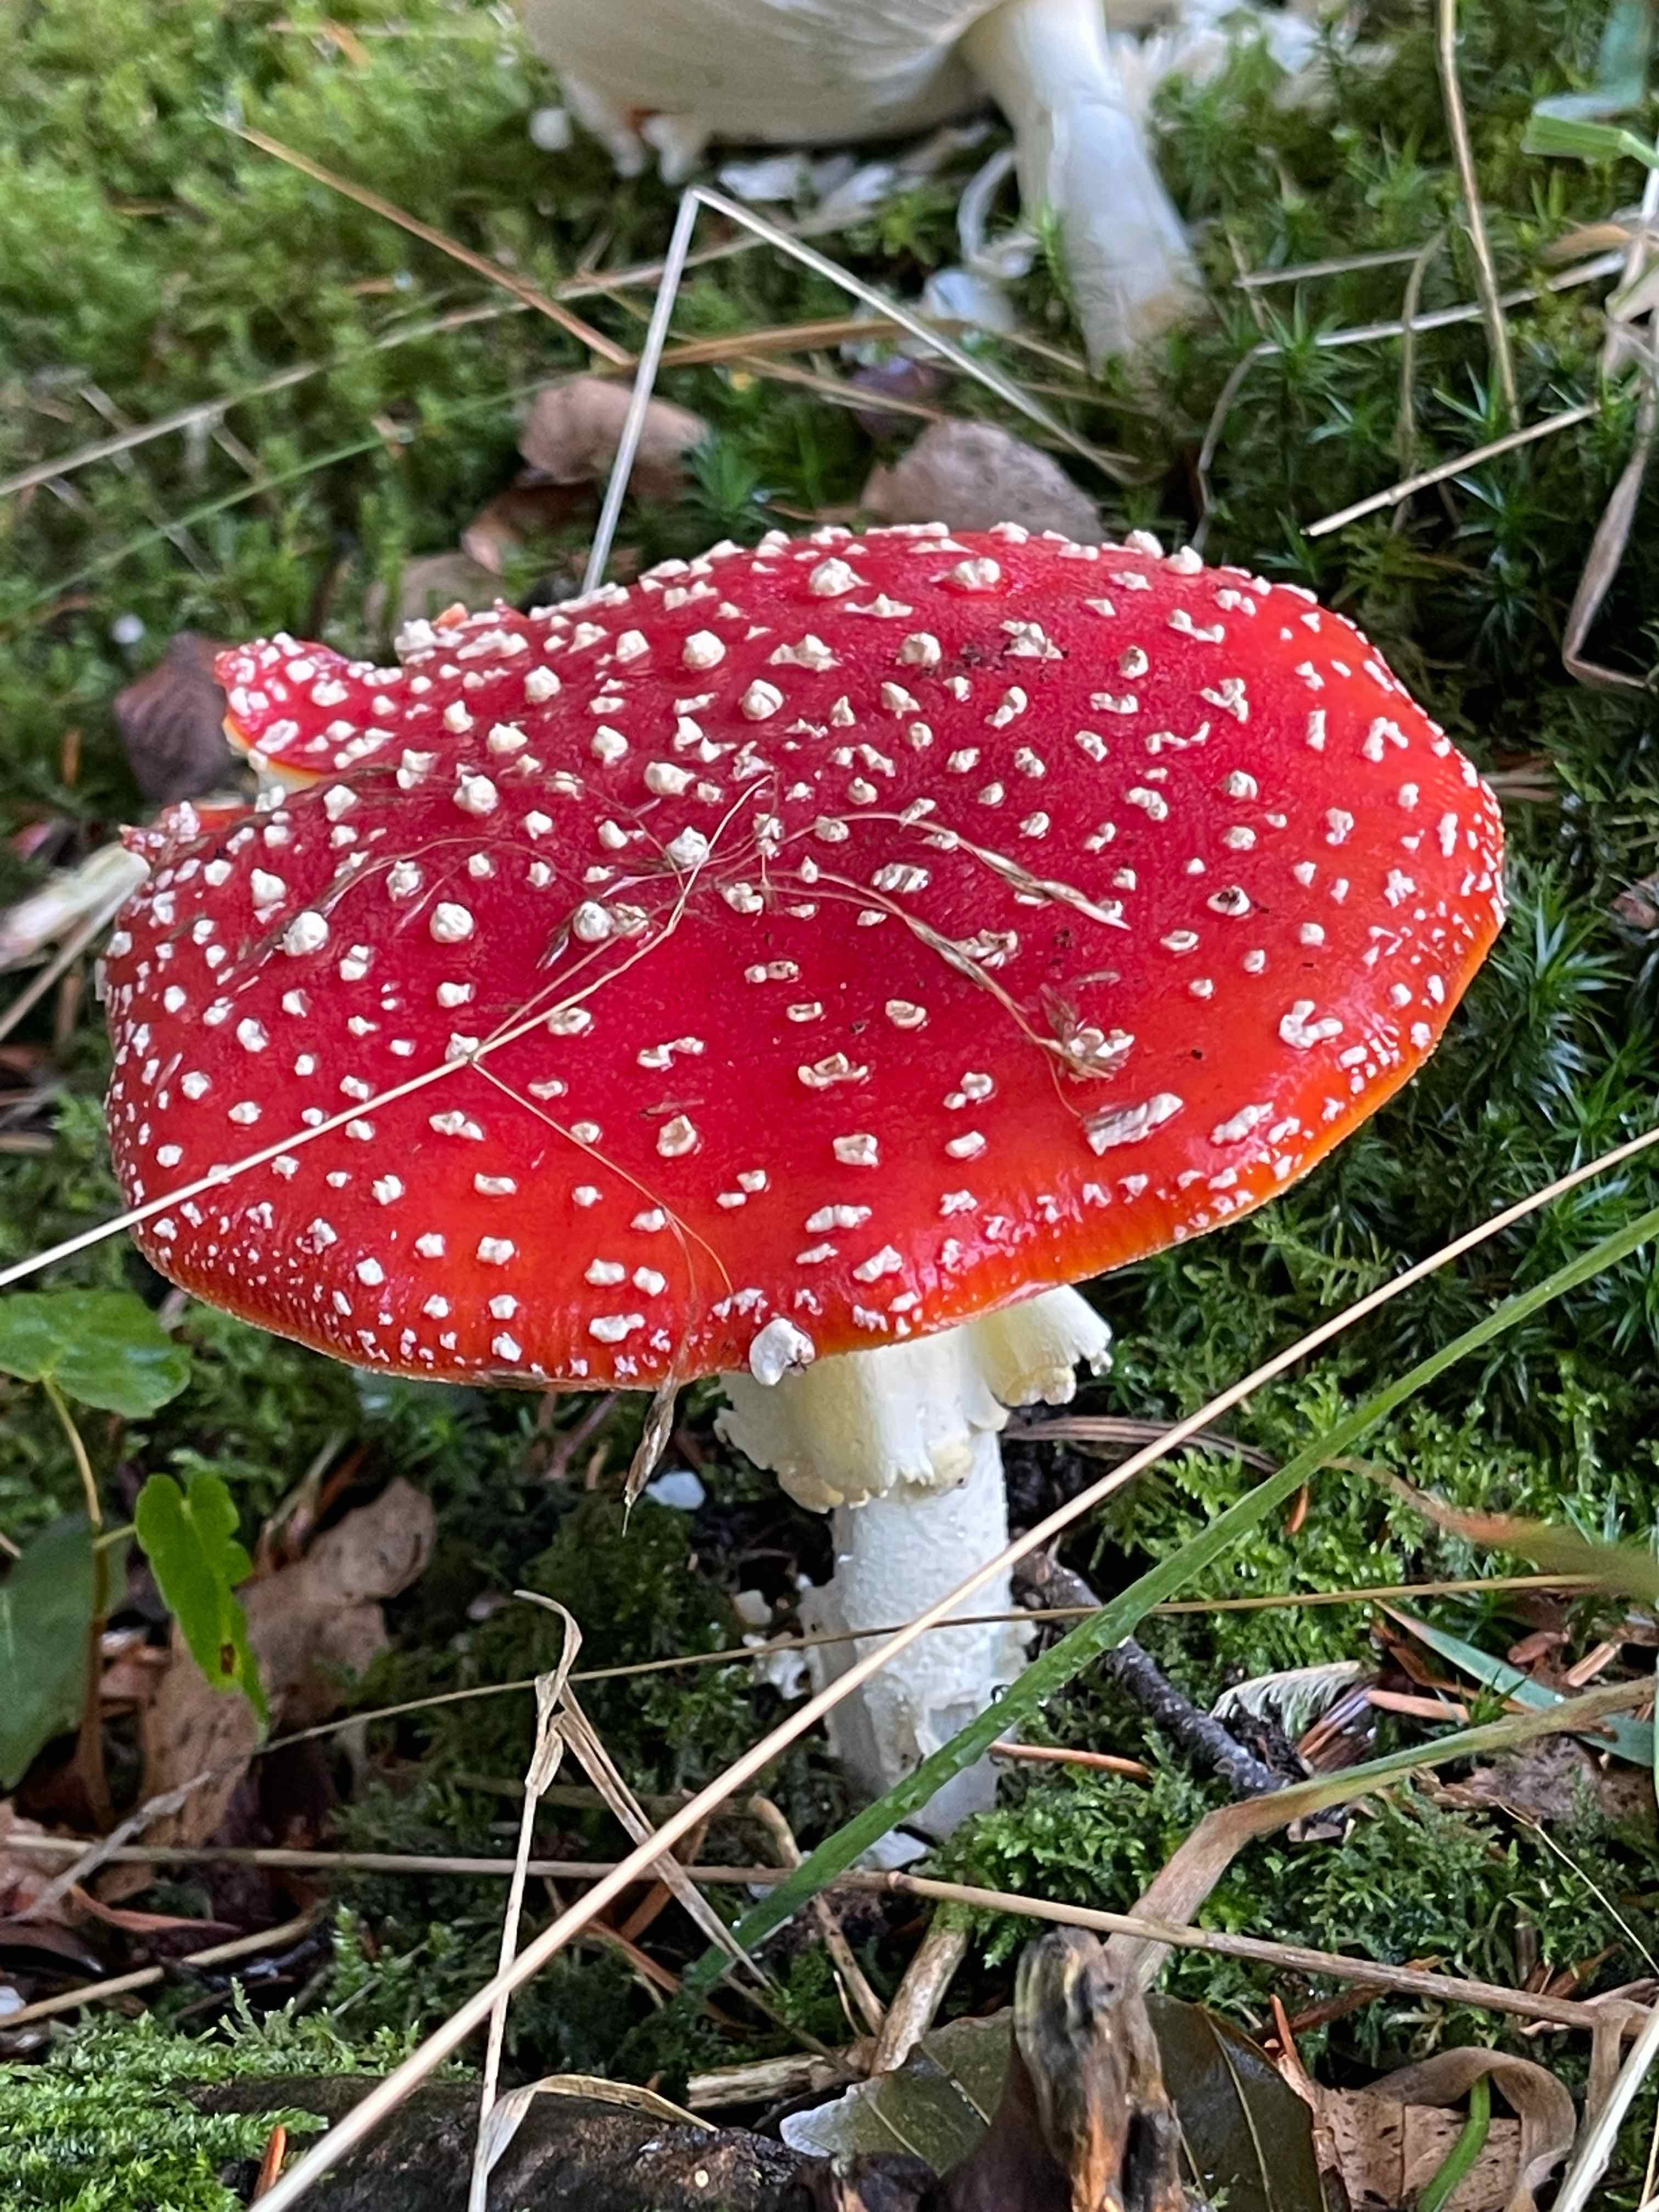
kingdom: Fungi
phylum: Basidiomycota
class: Agaricomycetes
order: Agaricales
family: Amanitaceae
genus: Amanita
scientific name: Amanita muscaria
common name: rød fluesvamp
